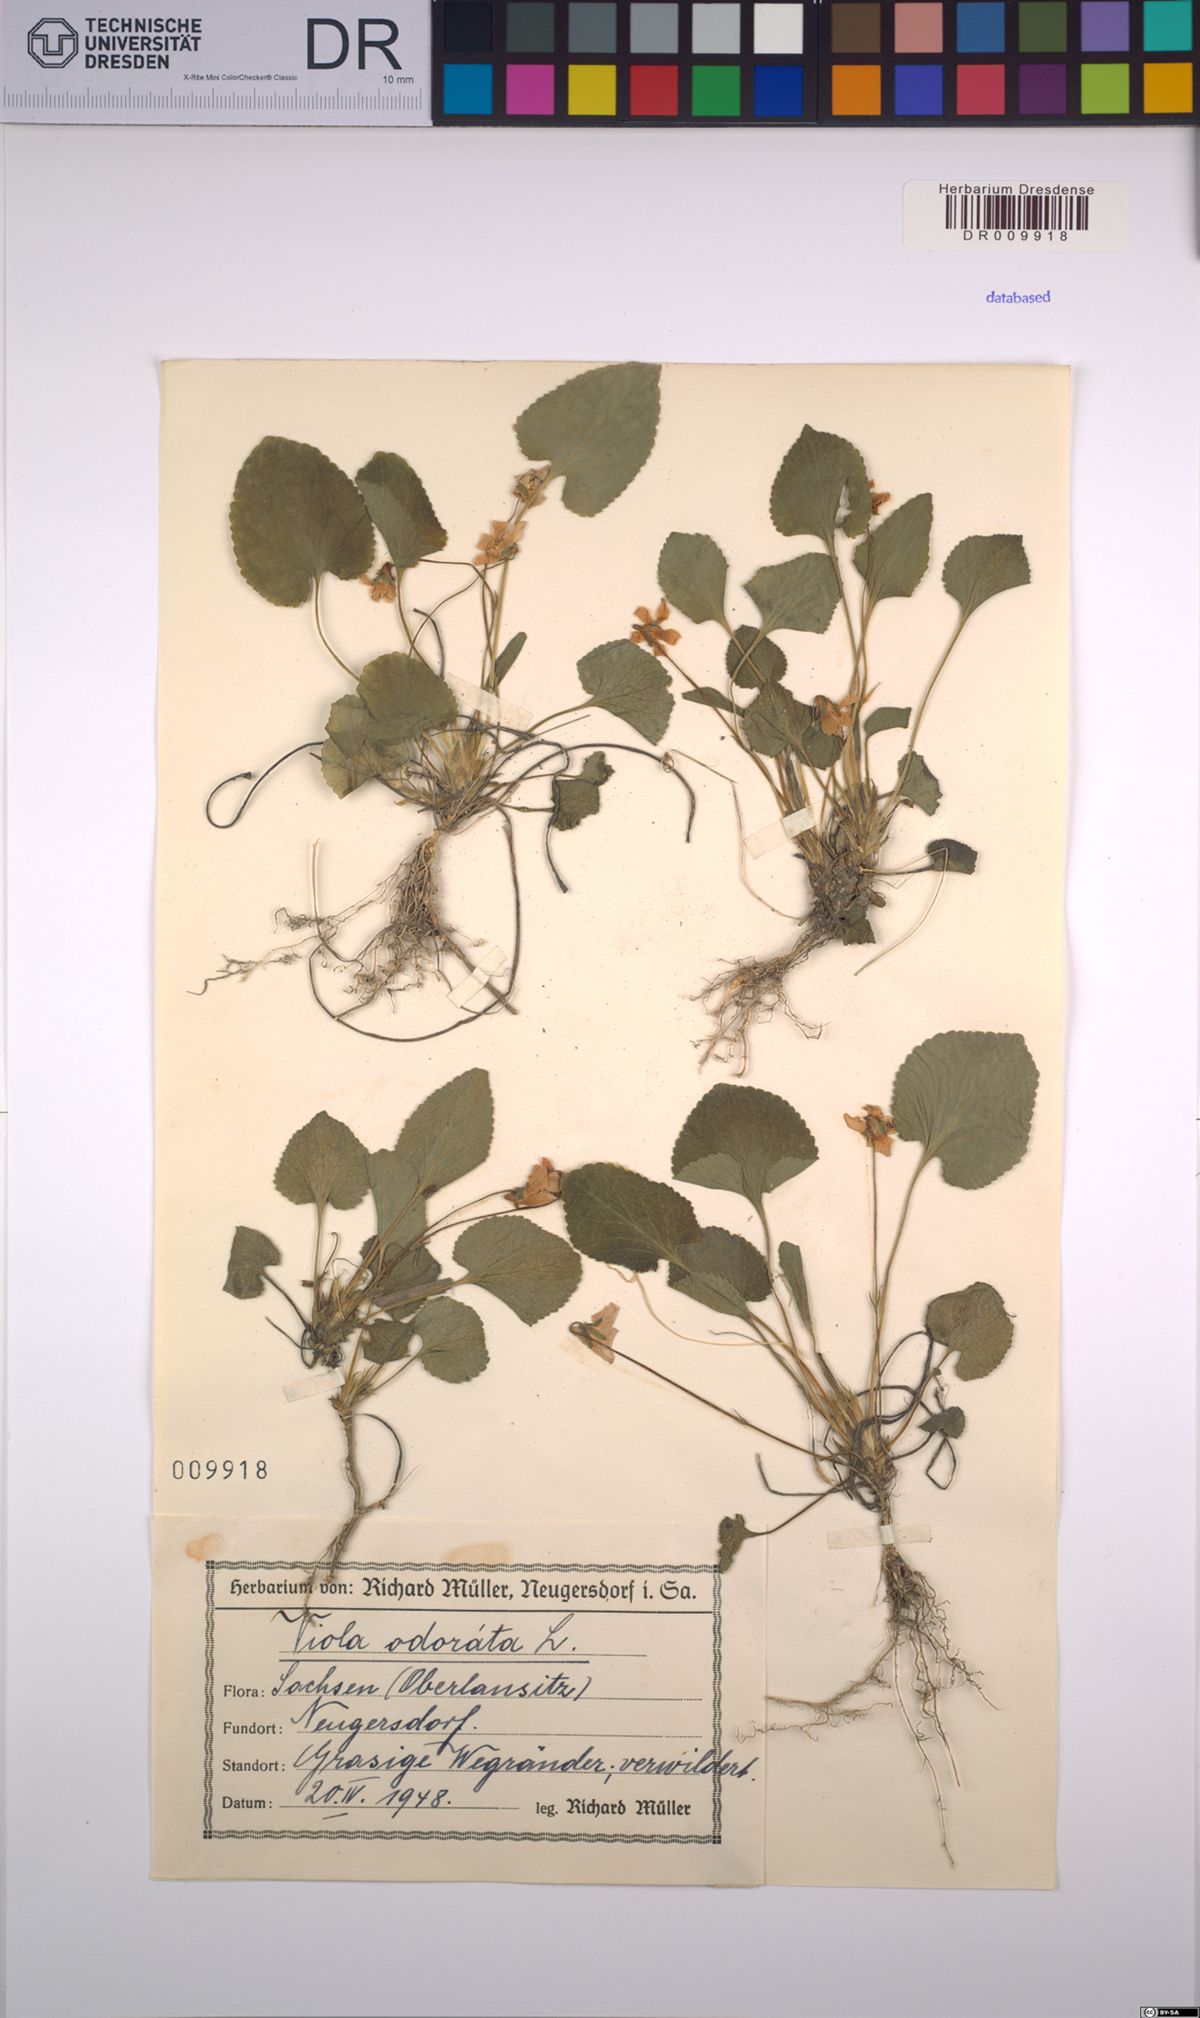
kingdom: Plantae
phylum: Tracheophyta
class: Magnoliopsida
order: Malpighiales
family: Violaceae
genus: Viola
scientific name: Viola odorata
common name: Sweet violet
